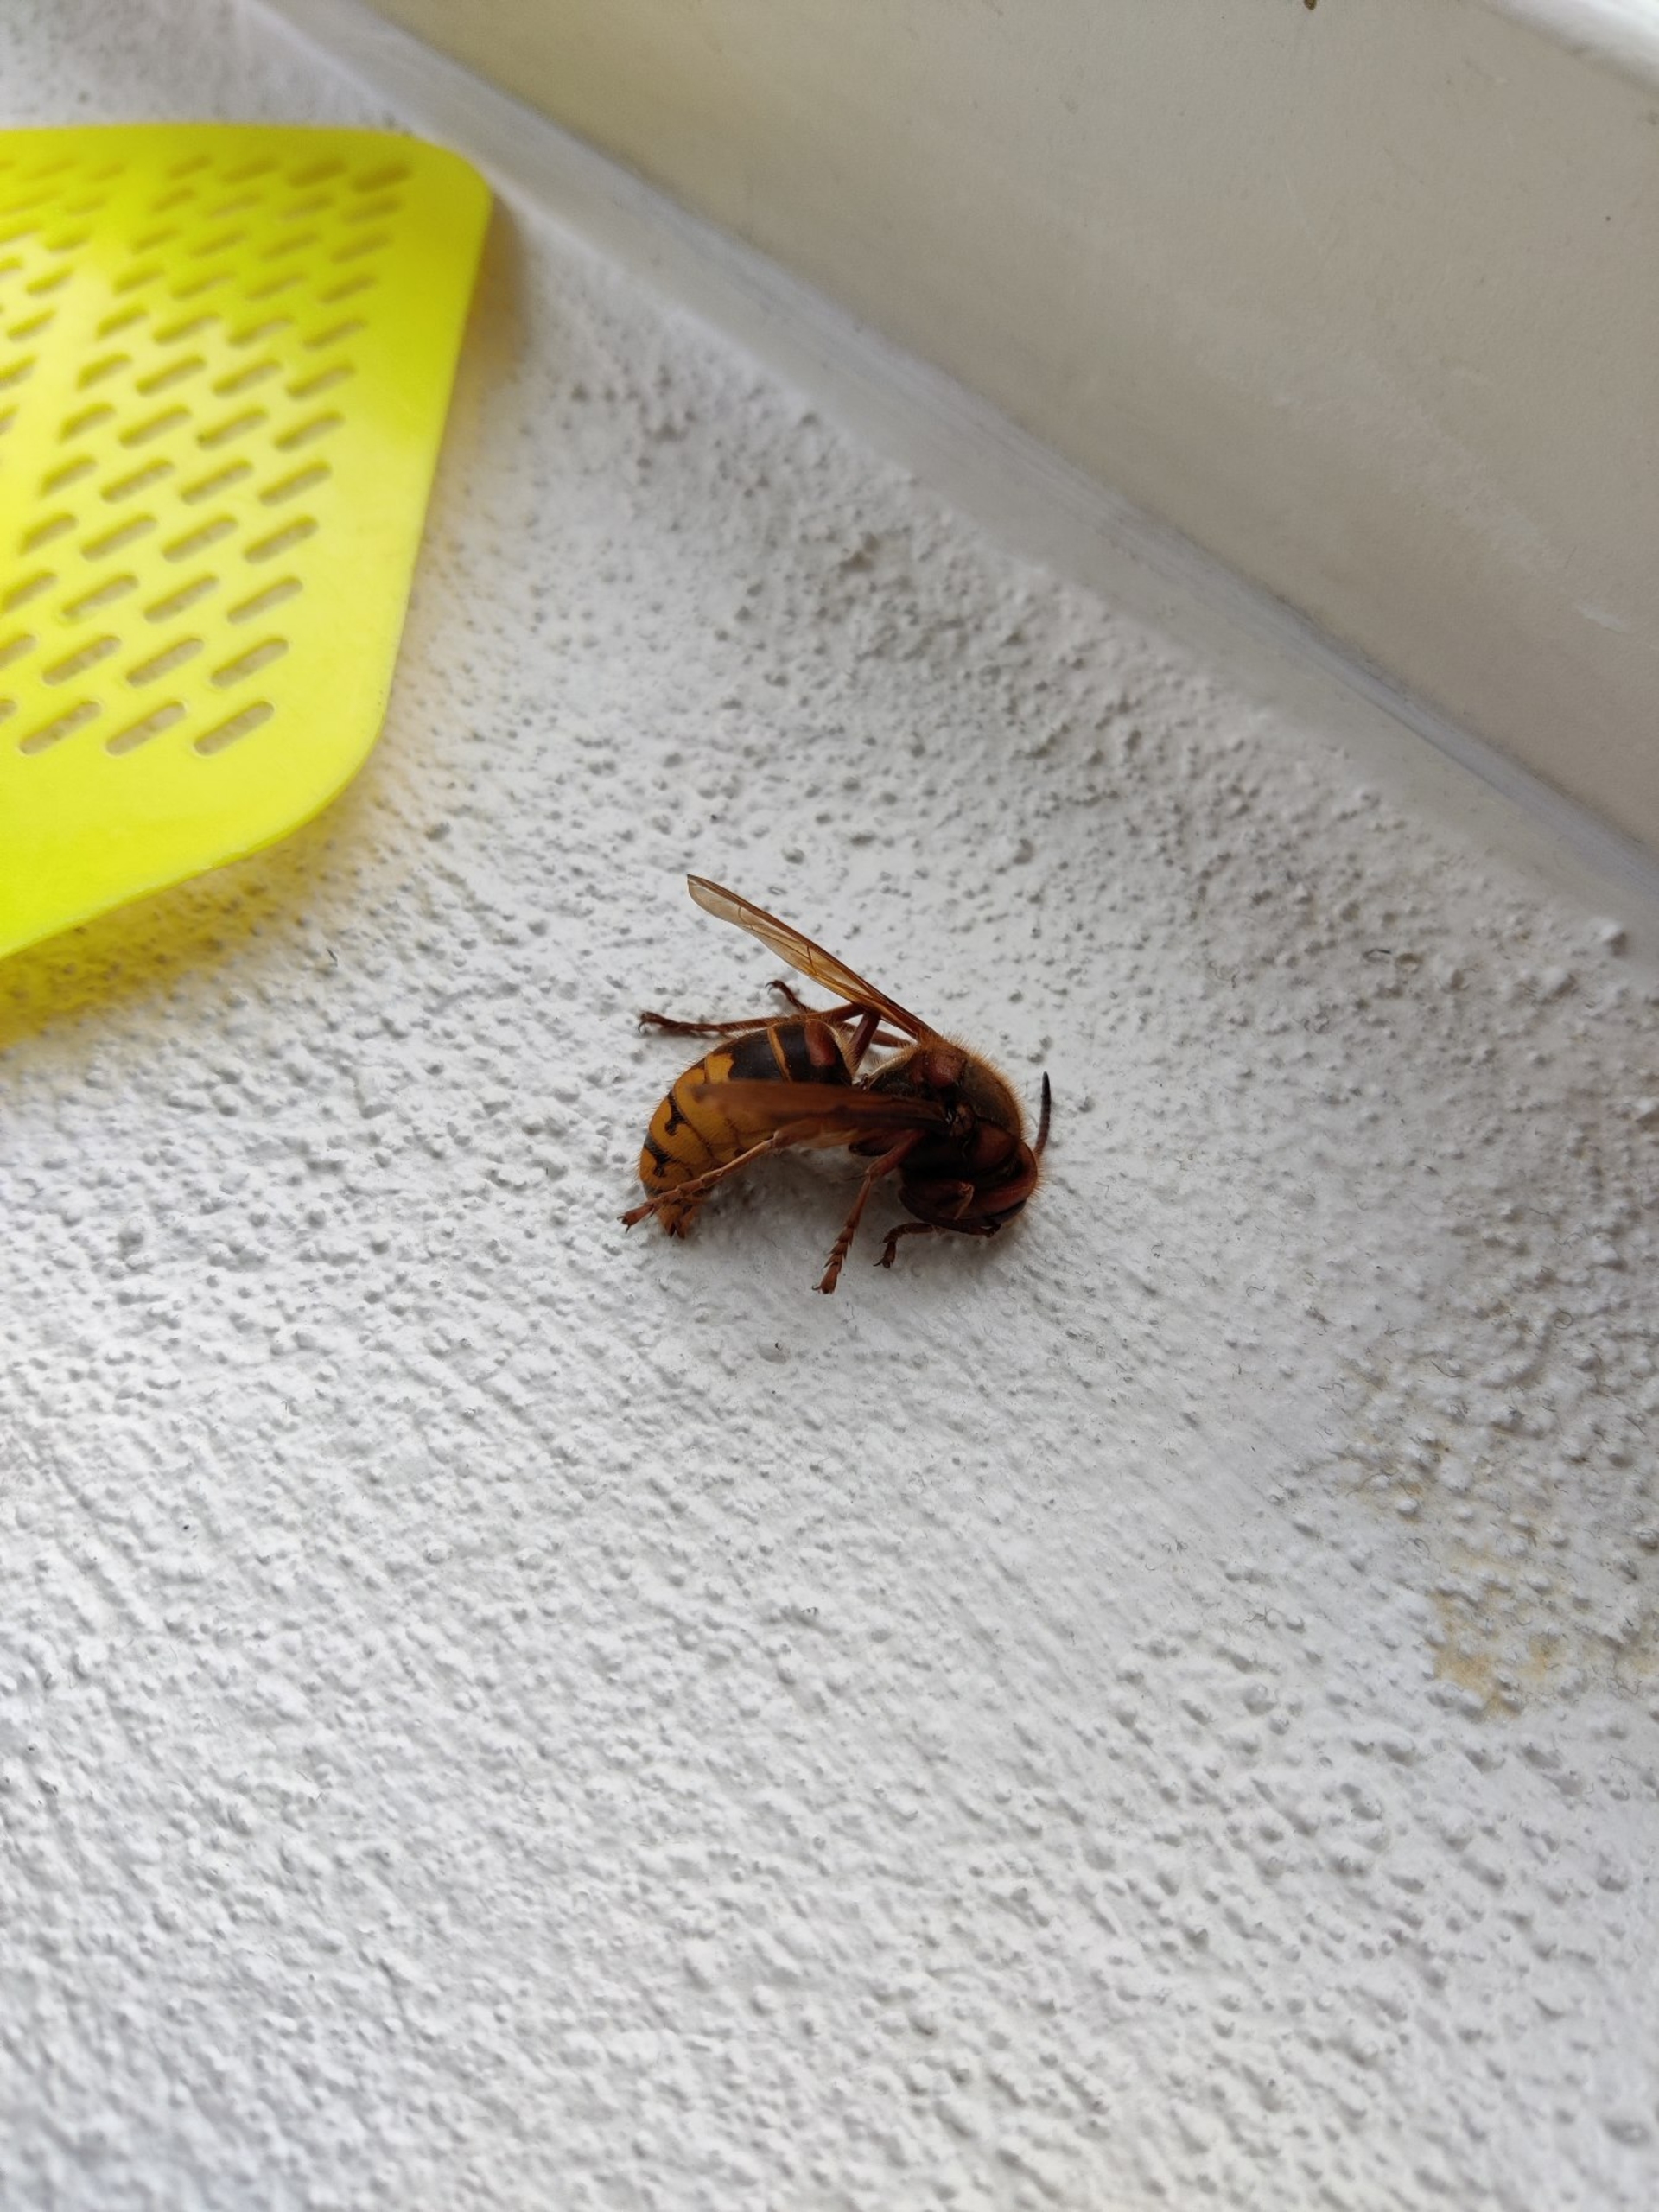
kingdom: Animalia
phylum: Arthropoda
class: Insecta
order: Hymenoptera
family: Vespidae
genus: Vespa
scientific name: Vespa crabro
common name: Stor gedehams
